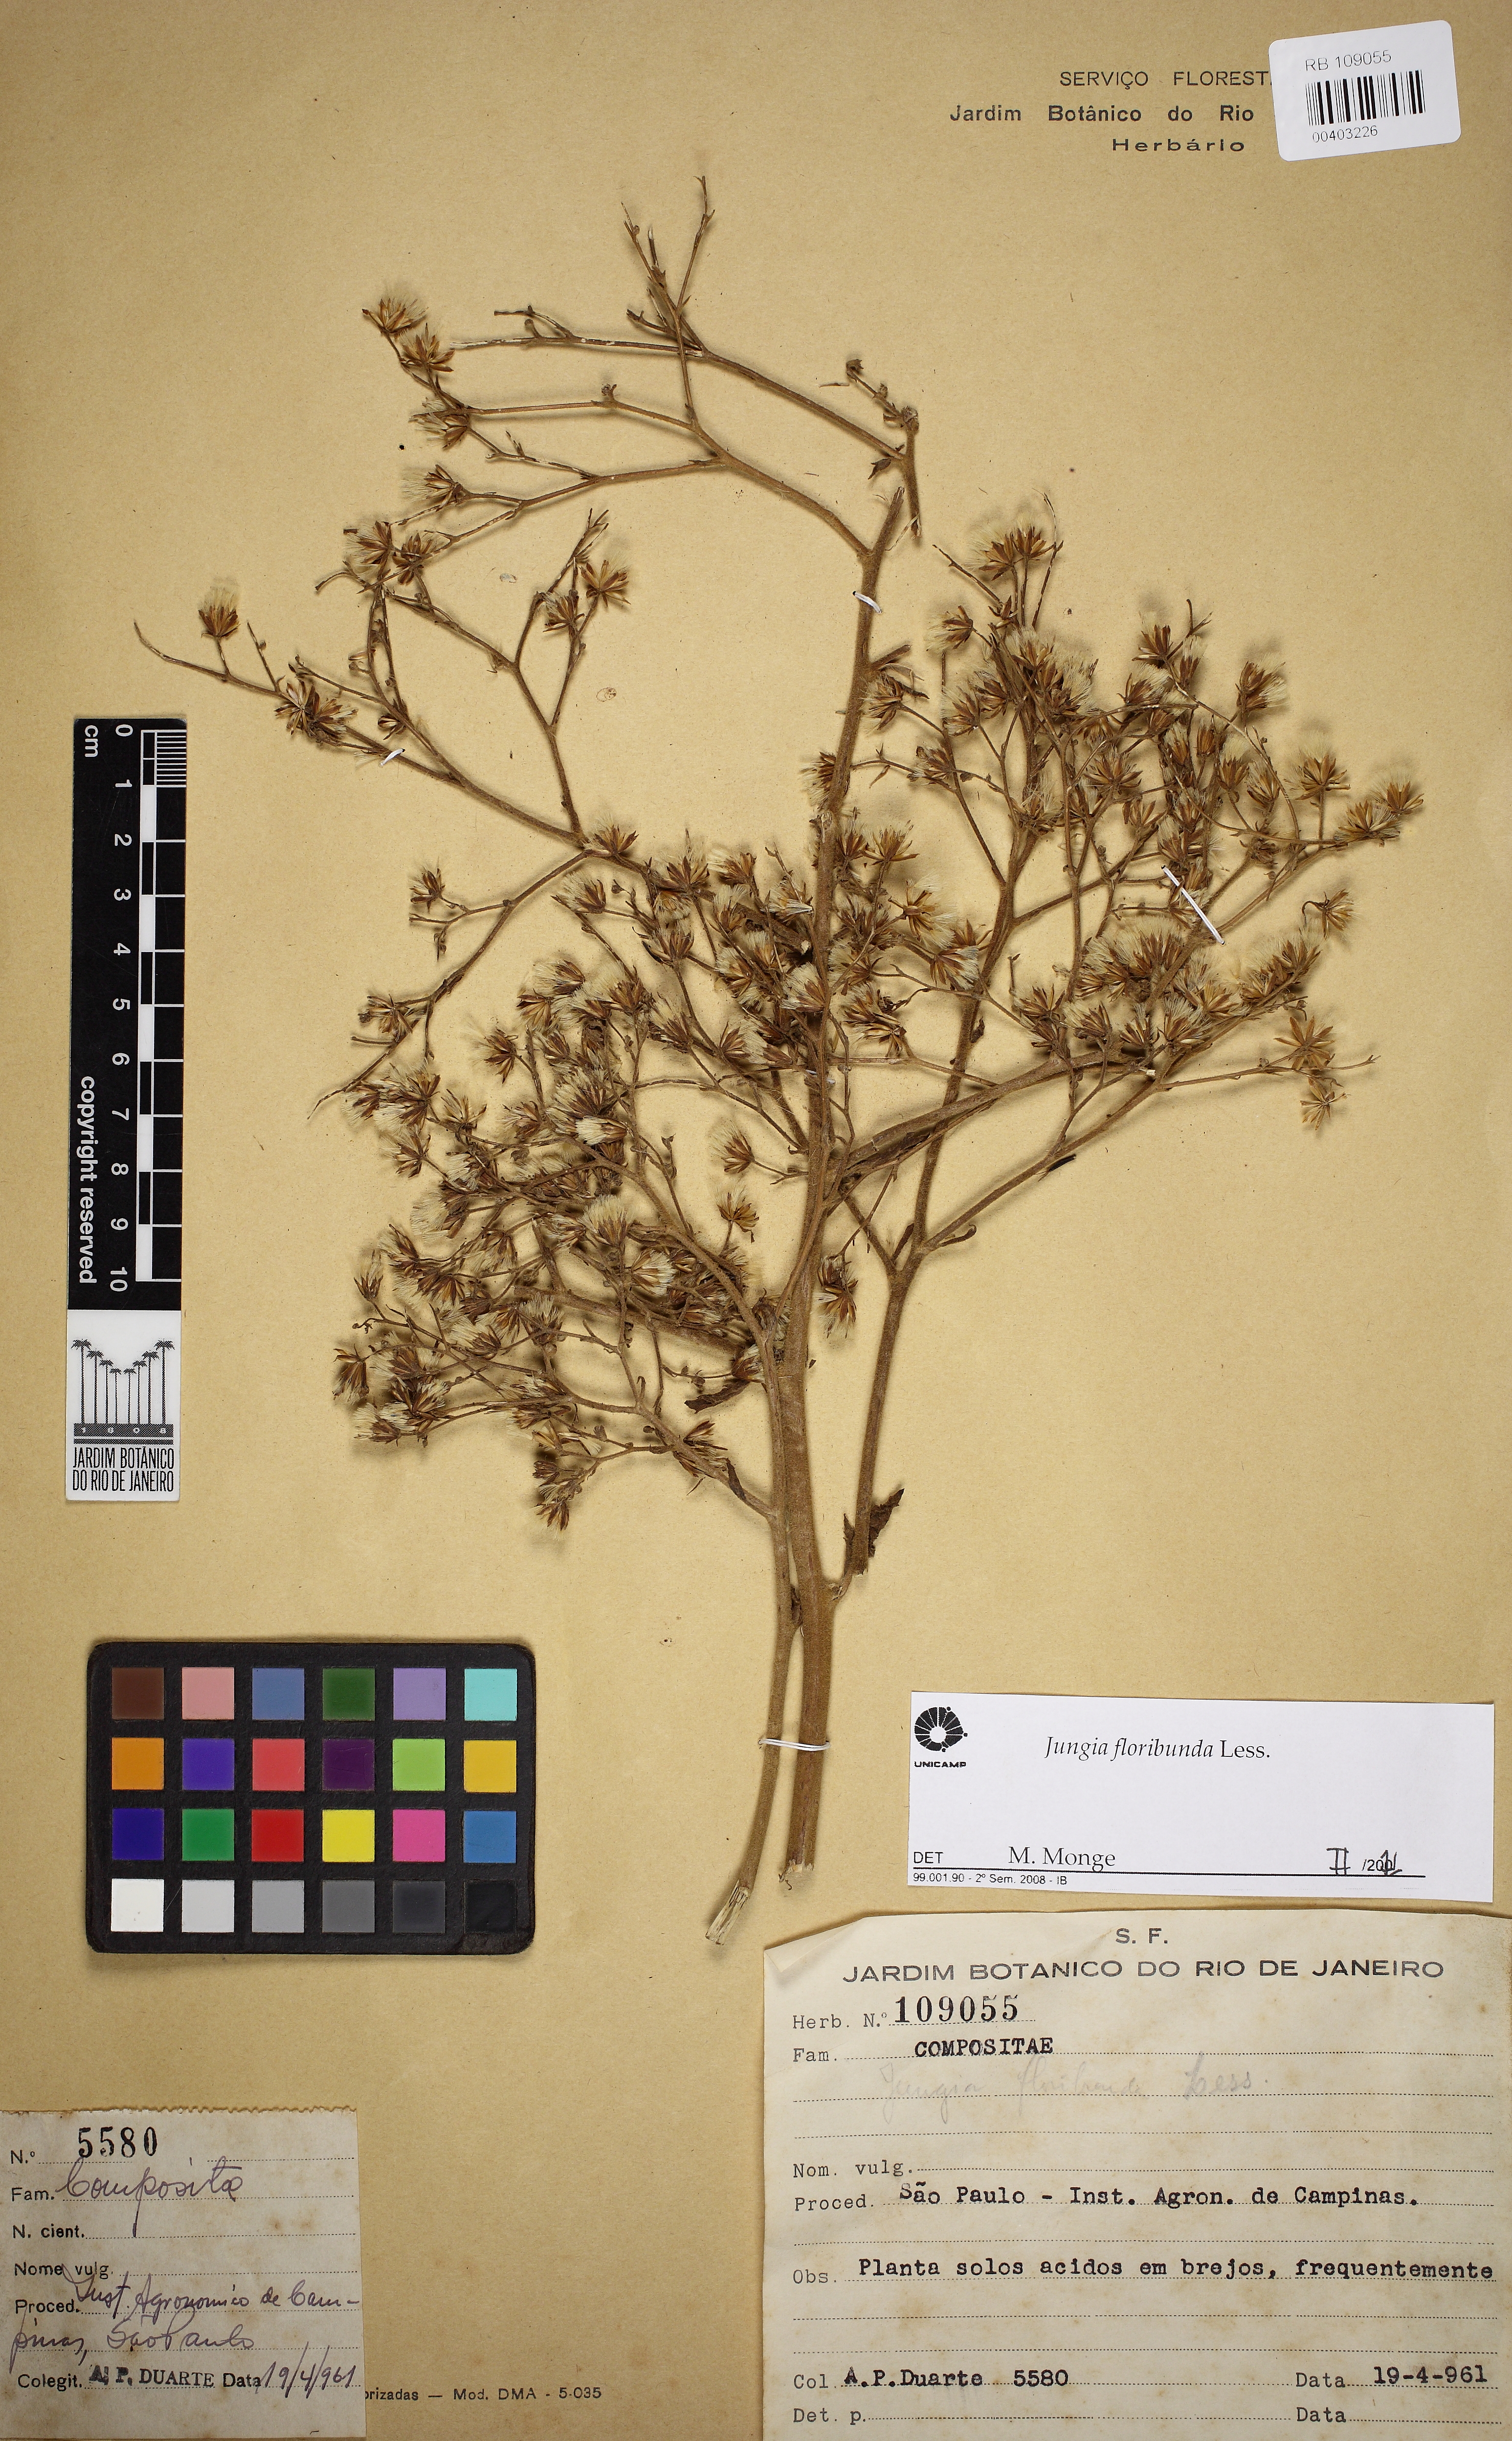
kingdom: Plantae
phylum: Tracheophyta
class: Magnoliopsida
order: Asterales
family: Asteraceae
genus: Jungia
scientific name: Jungia floribunda
